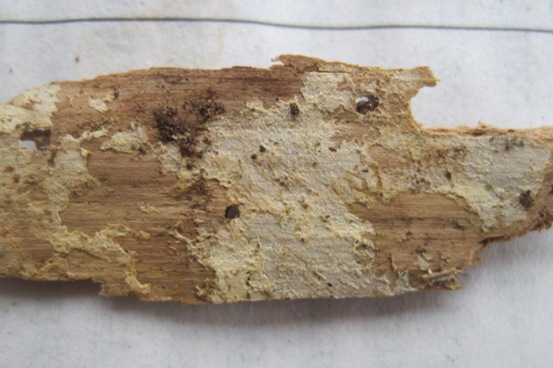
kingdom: Fungi
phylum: Basidiomycota
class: Agaricomycetes
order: Hymenochaetales
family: Hyphodontiaceae
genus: Hyphodontia
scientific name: Hyphodontia pallidula
